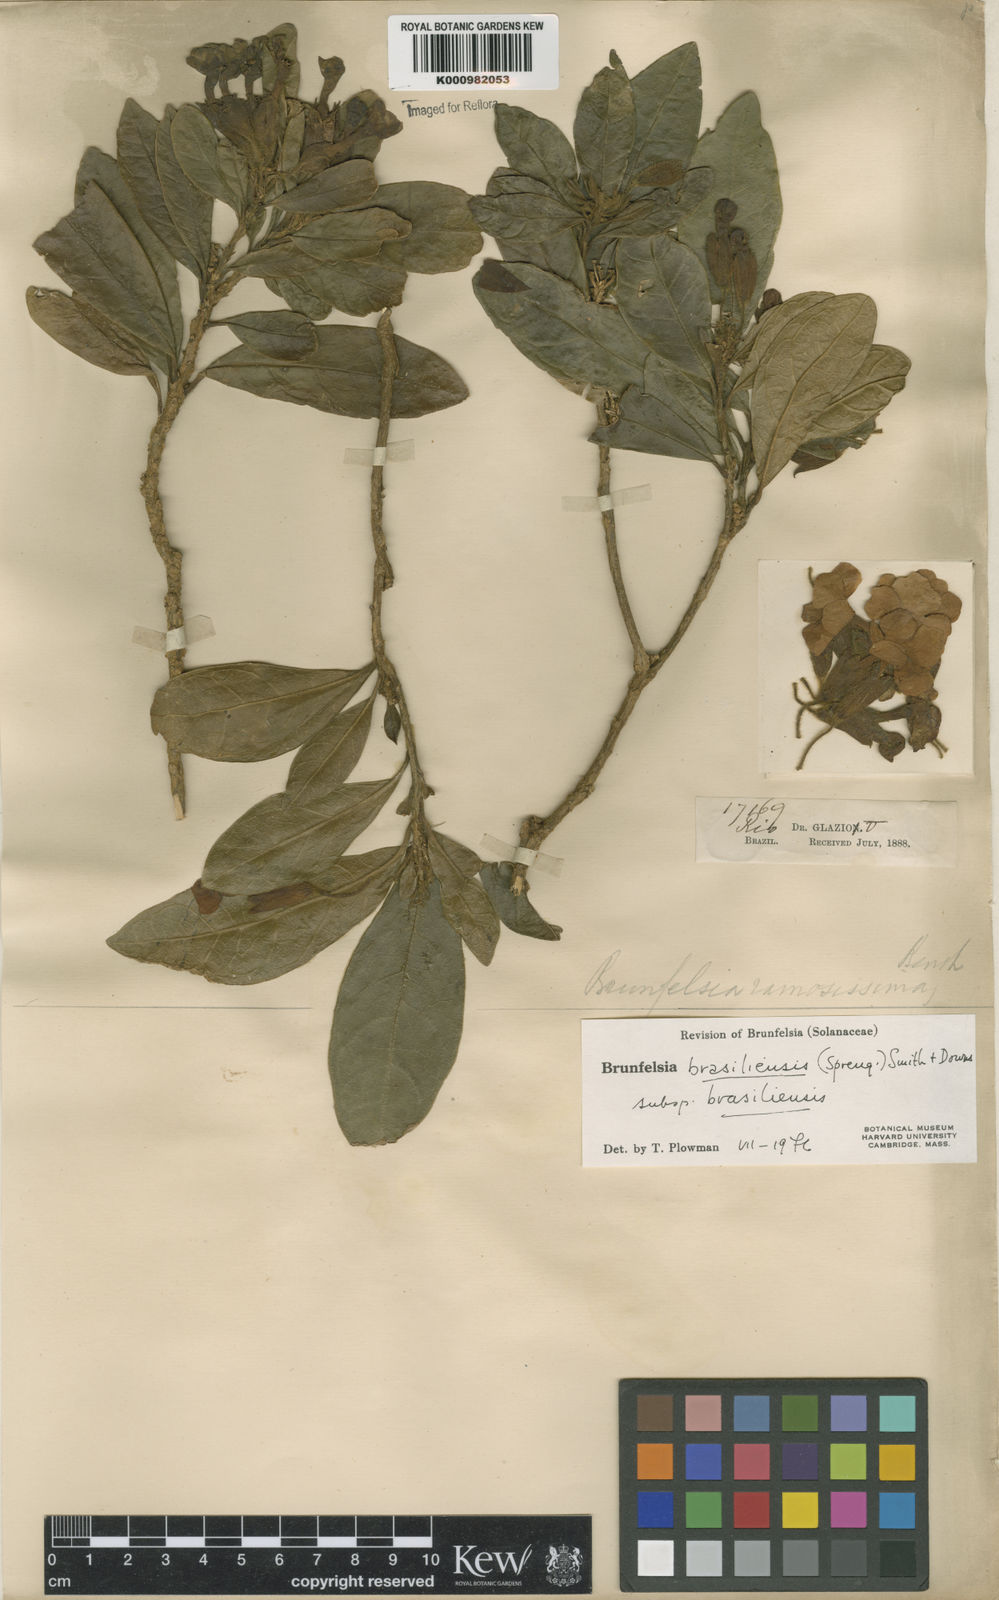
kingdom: Plantae
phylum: Tracheophyta
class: Magnoliopsida
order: Solanales
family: Solanaceae
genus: Brunfelsia
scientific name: Brunfelsia brasiliensis
